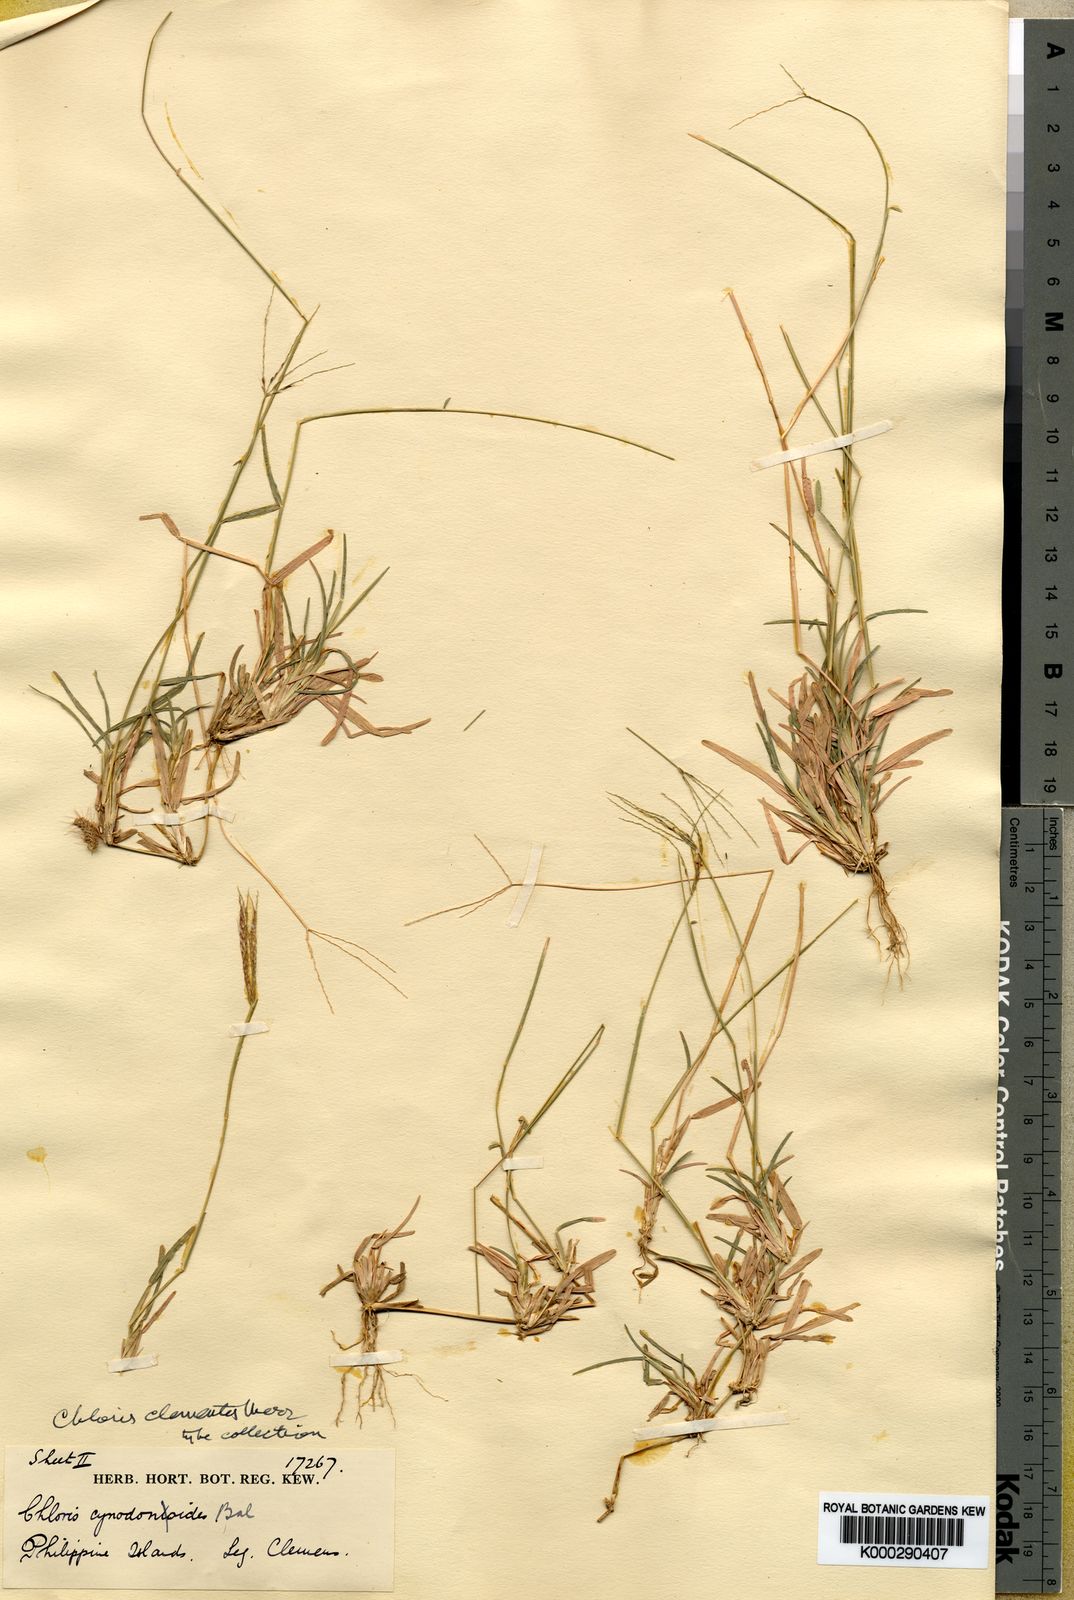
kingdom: Plantae
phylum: Tracheophyta
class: Liliopsida
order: Poales
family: Poaceae
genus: Chloris
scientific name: Chloris clementis
